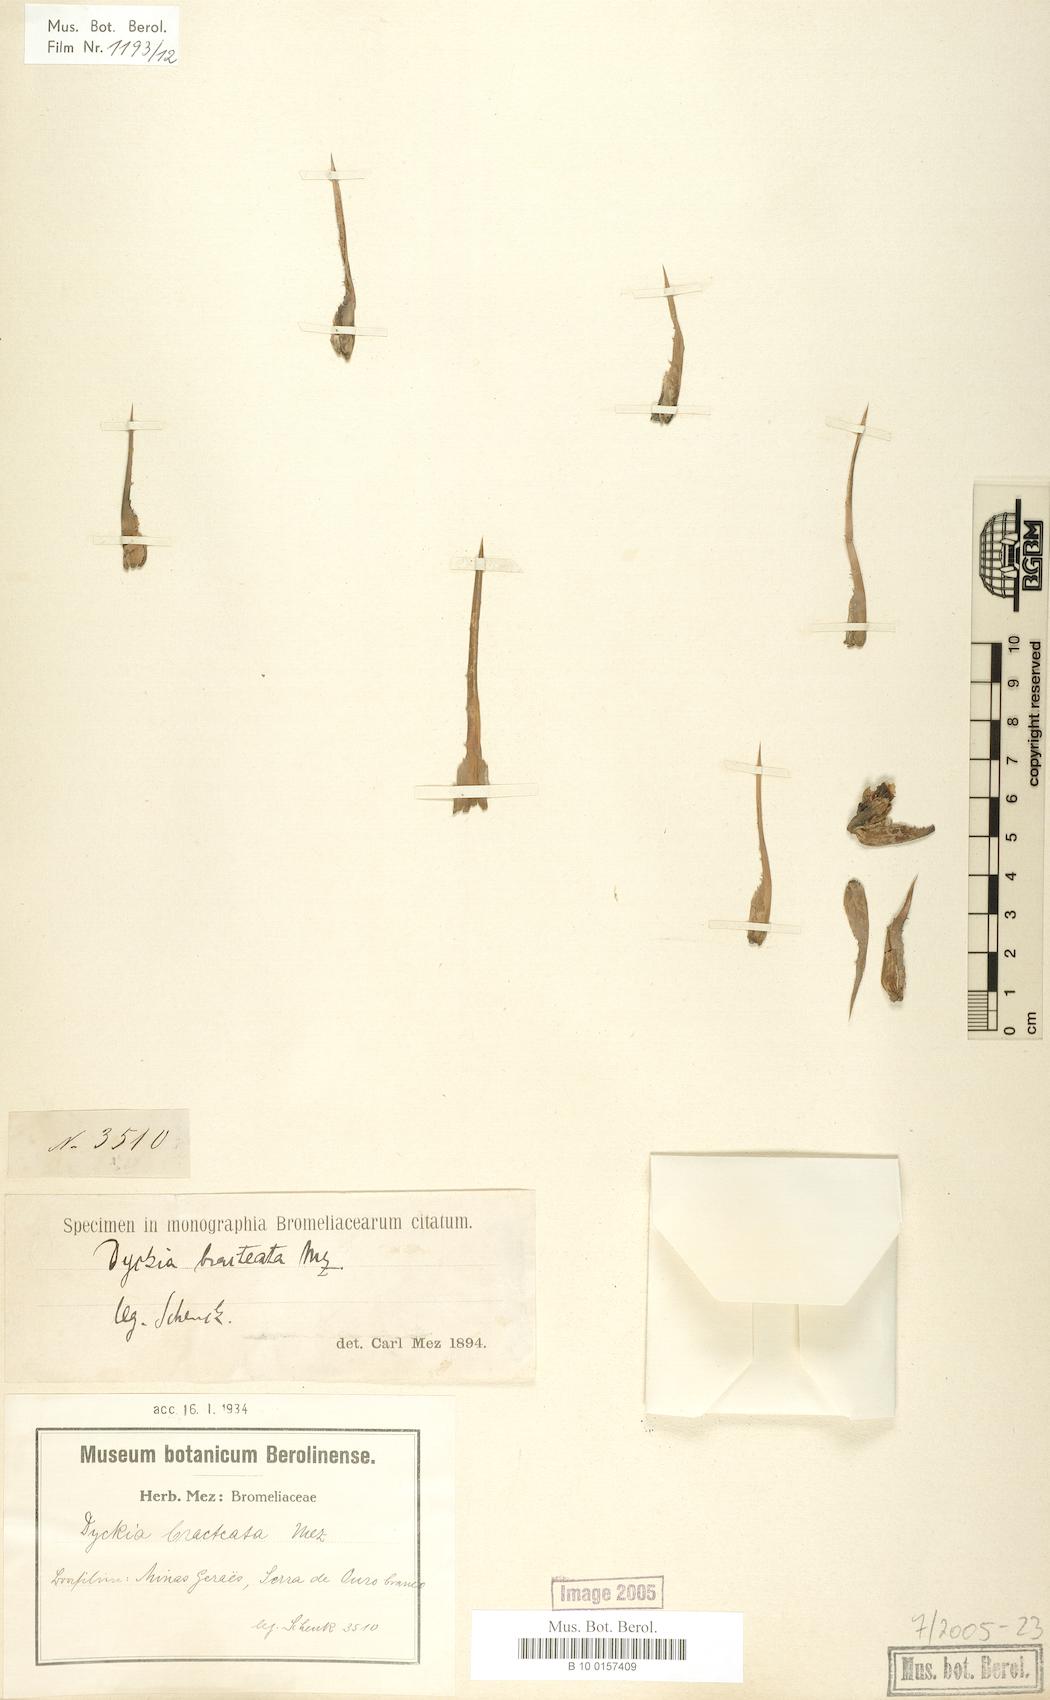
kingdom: Plantae
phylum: Tracheophyta
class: Liliopsida
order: Poales
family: Bromeliaceae
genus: Dyckia
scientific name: Dyckia bracteata
